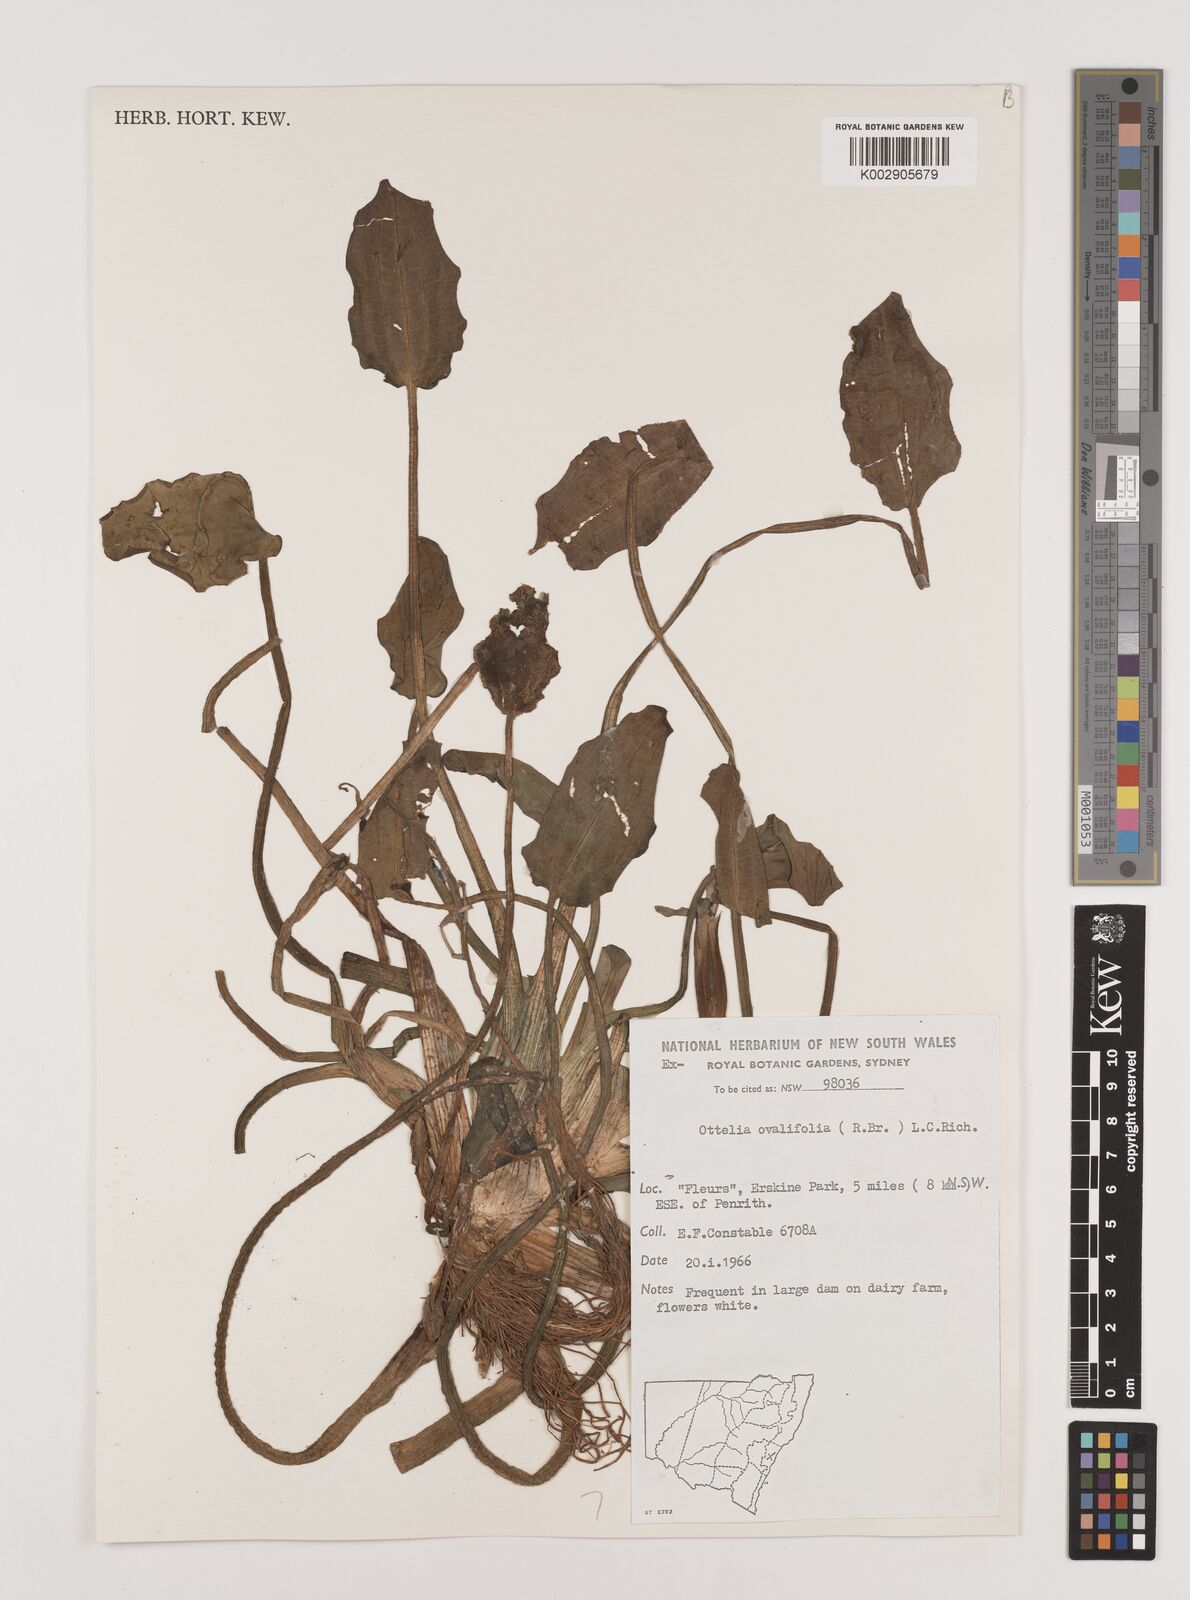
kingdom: Plantae
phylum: Tracheophyta
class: Liliopsida
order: Alismatales
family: Hydrocharitaceae
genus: Ottelia
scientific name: Ottelia ovalifolia
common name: Swamp-lily
